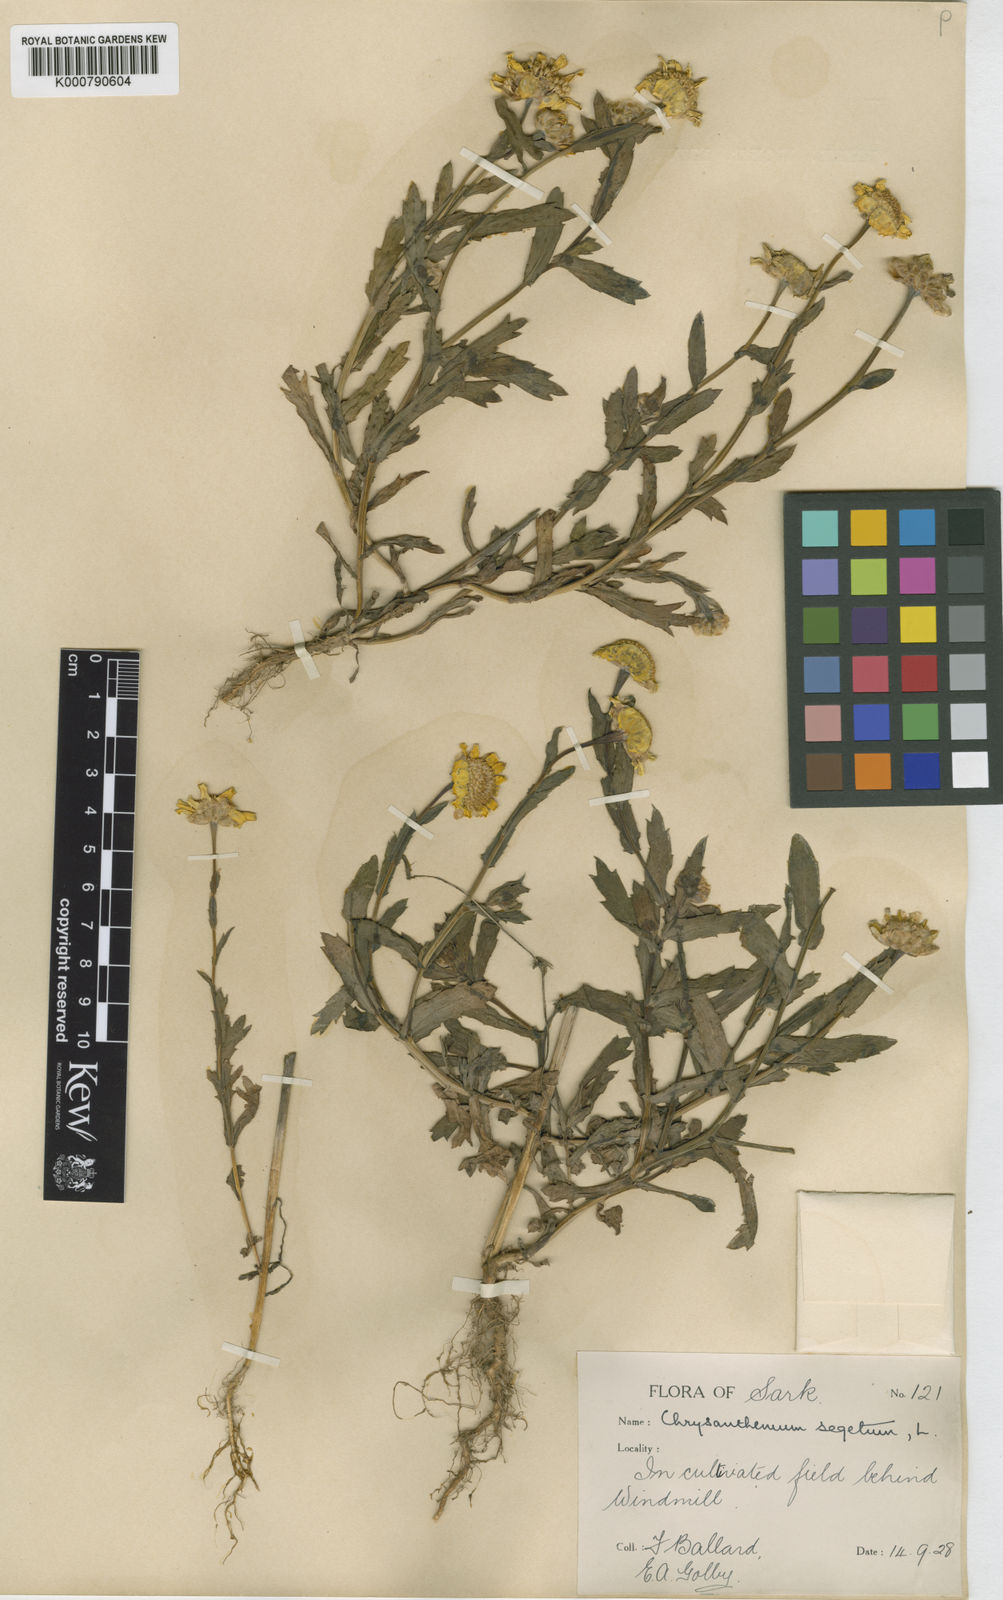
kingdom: Plantae
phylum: Tracheophyta
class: Magnoliopsida
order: Asterales
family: Asteraceae
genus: Glebionis
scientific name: Glebionis
